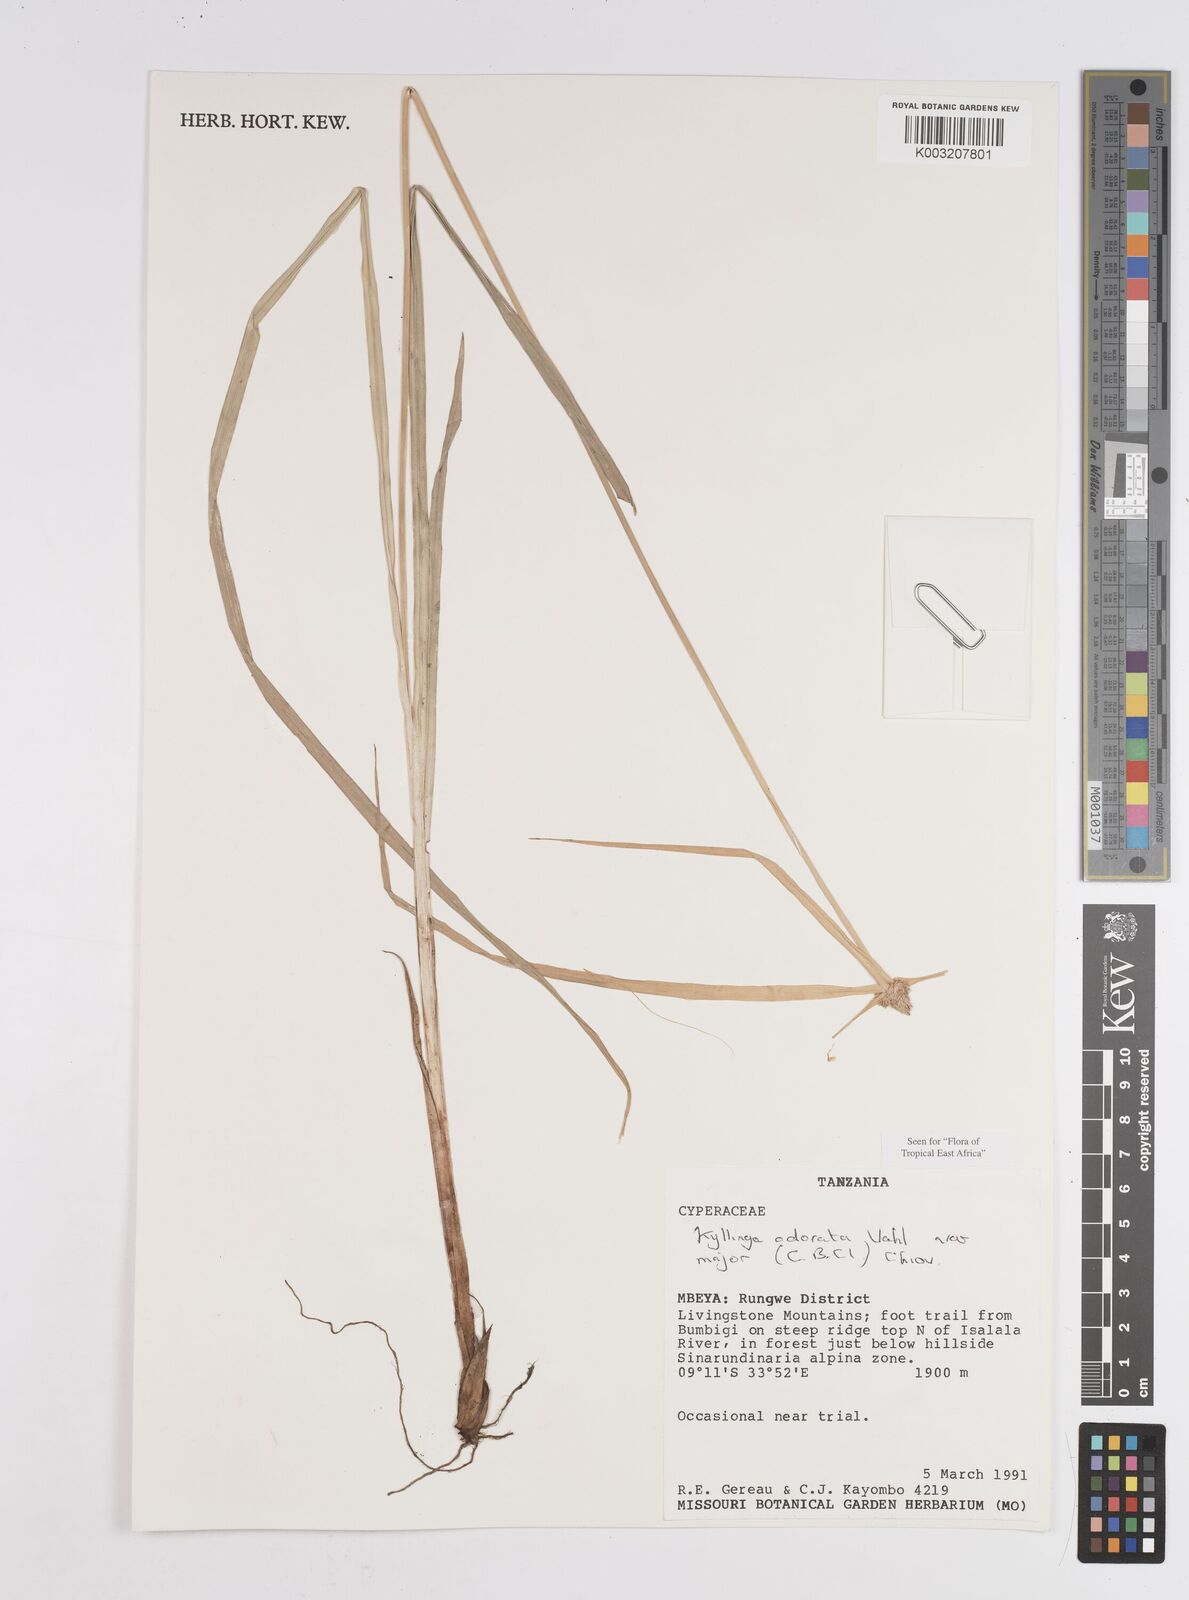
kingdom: Plantae
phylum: Tracheophyta
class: Liliopsida
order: Poales
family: Cyperaceae
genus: Cyperus
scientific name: Cyperus
